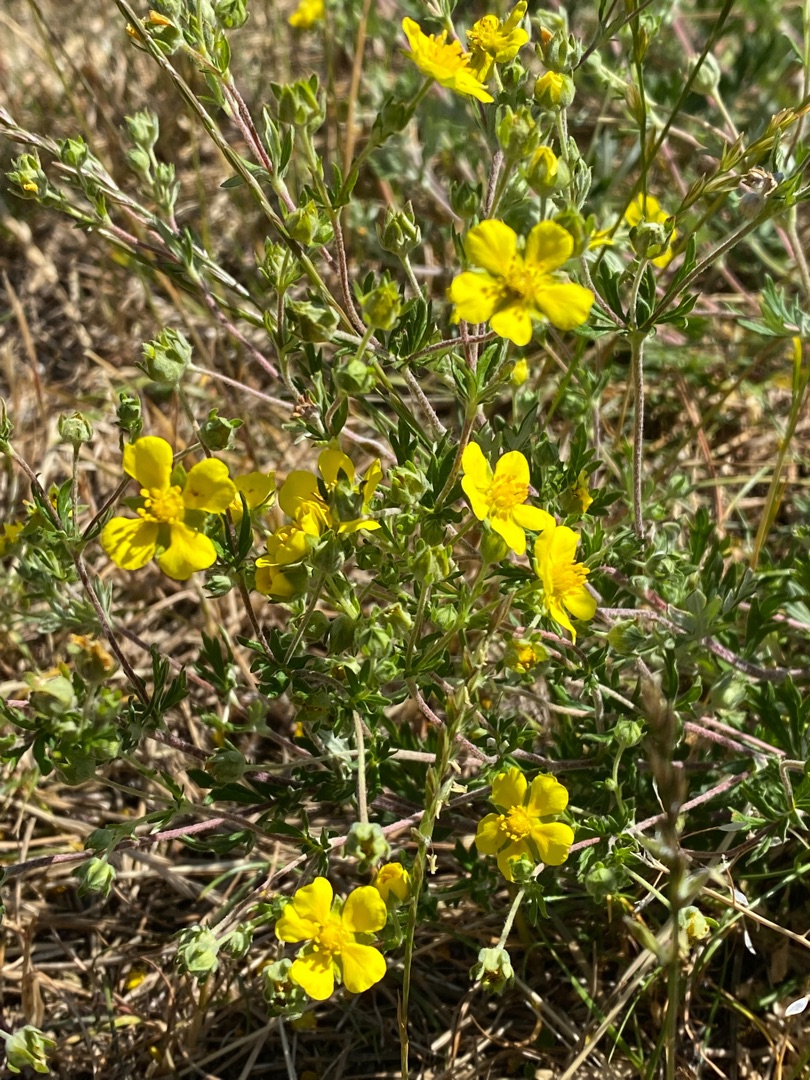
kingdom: Plantae
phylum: Tracheophyta
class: Magnoliopsida
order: Rosales
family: Rosaceae
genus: Potentilla
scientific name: Potentilla argentea
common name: Sølv-potentil
